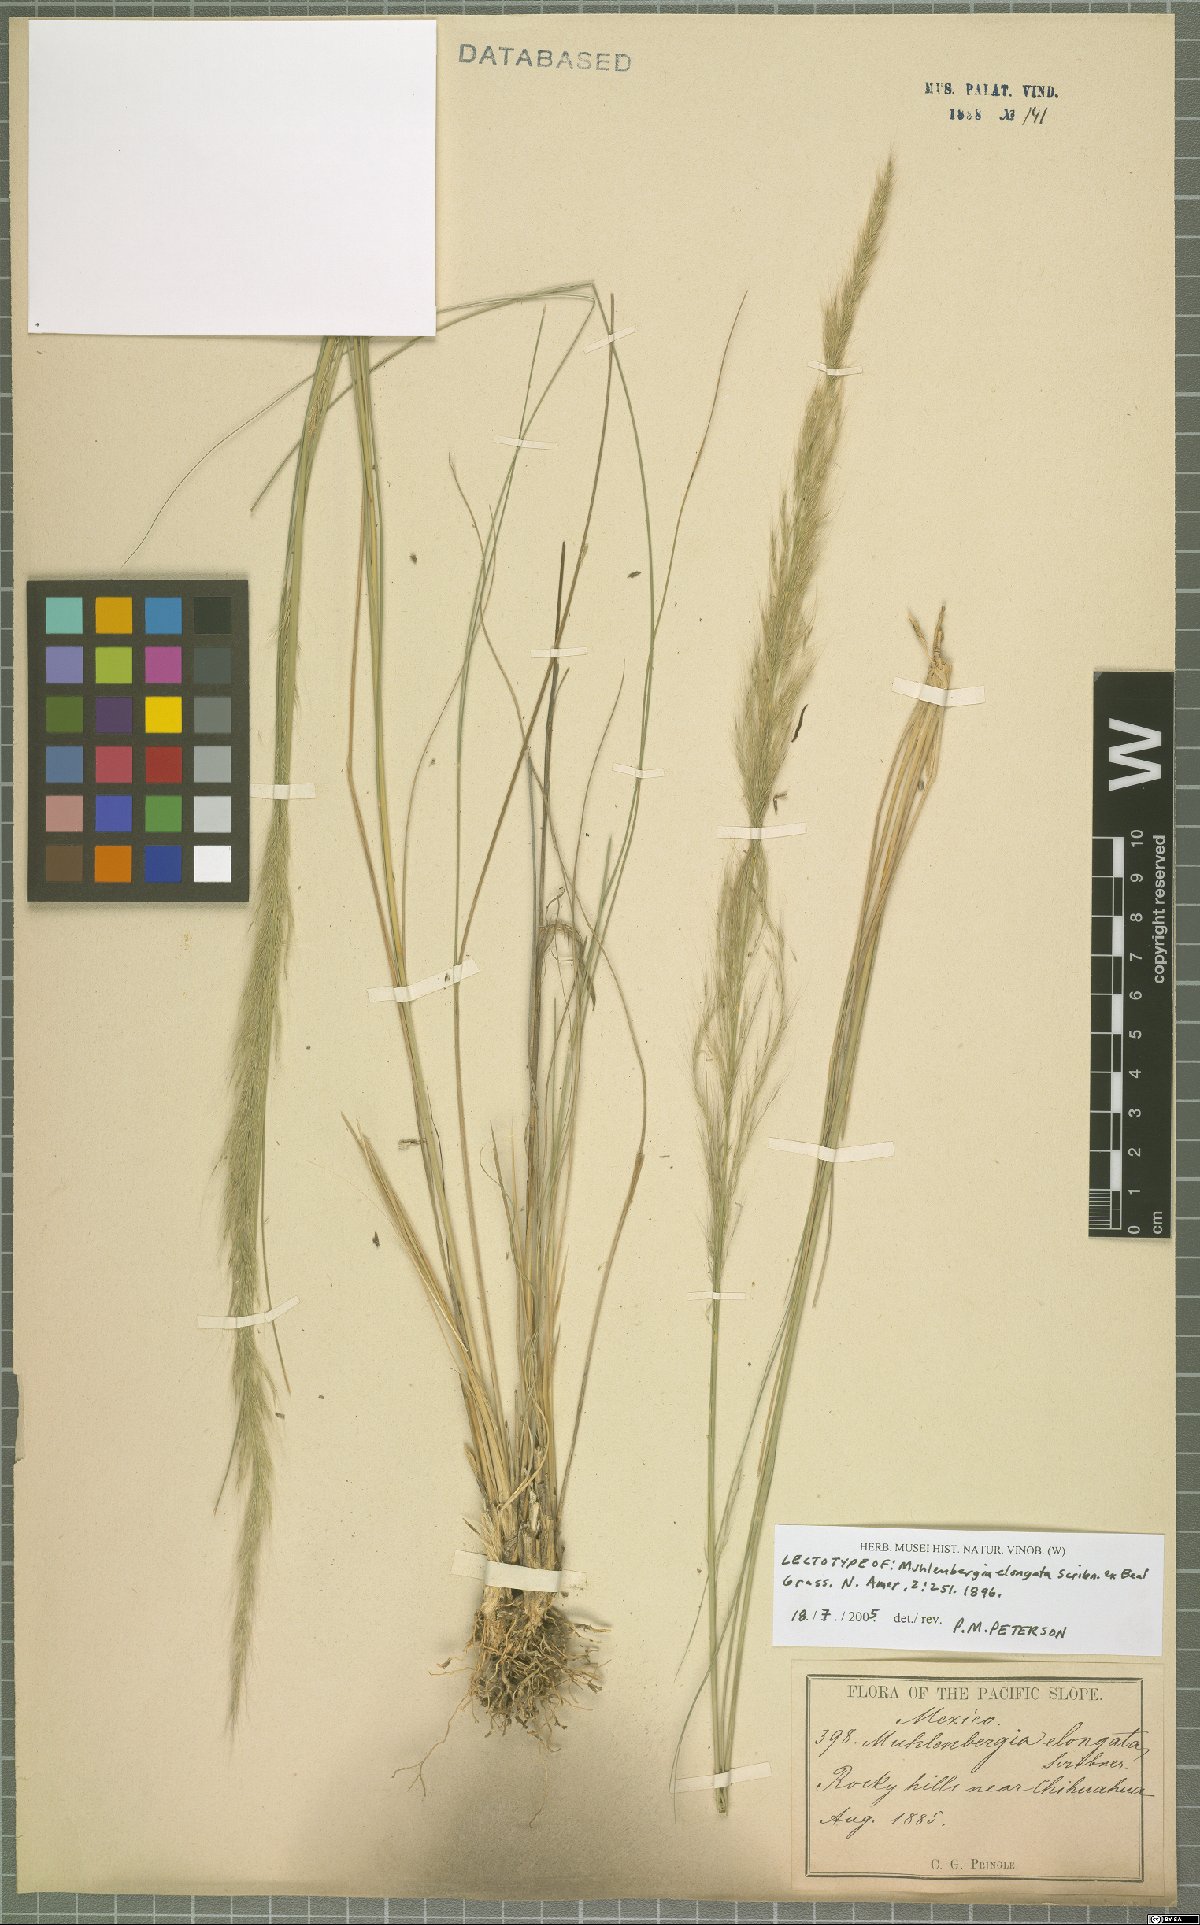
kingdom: Plantae
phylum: Tracheophyta
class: Liliopsida
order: Poales
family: Poaceae
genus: Muhlenbergia
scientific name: Muhlenbergia elongata
